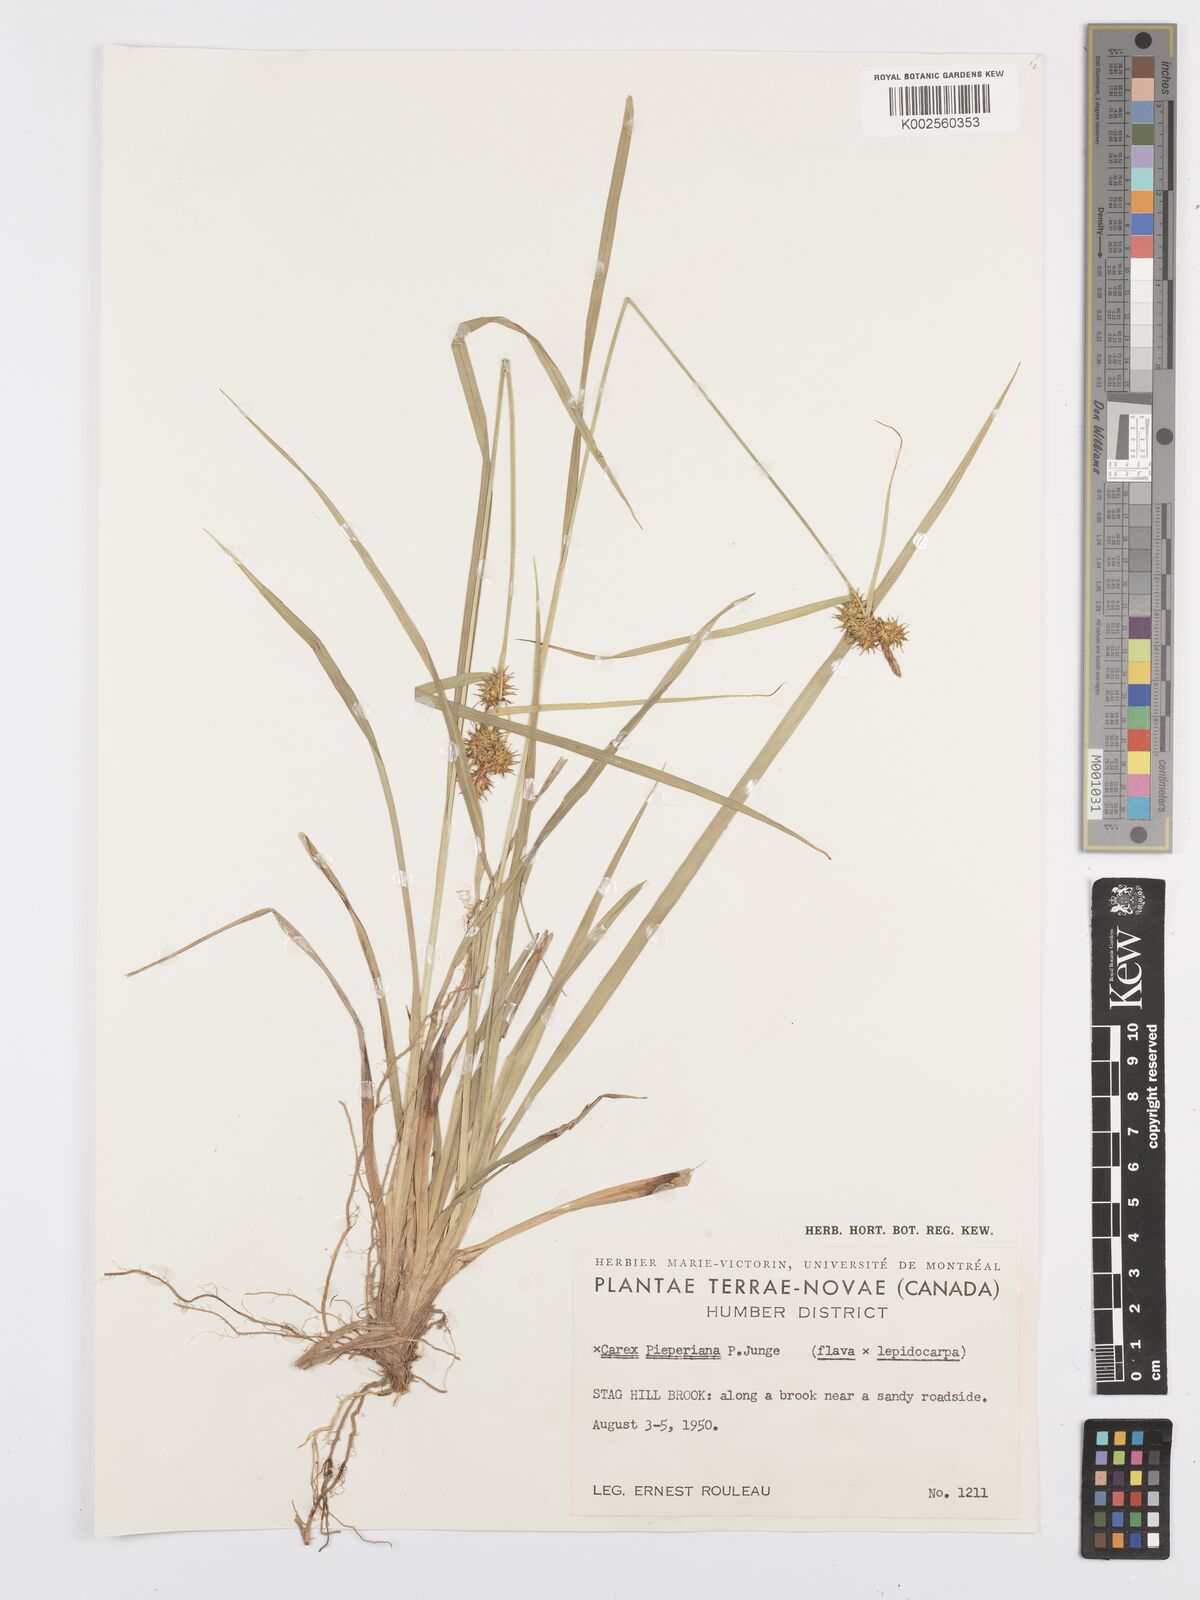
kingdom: Plantae
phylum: Tracheophyta
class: Liliopsida
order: Poales
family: Cyperaceae
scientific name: Cyperaceae
